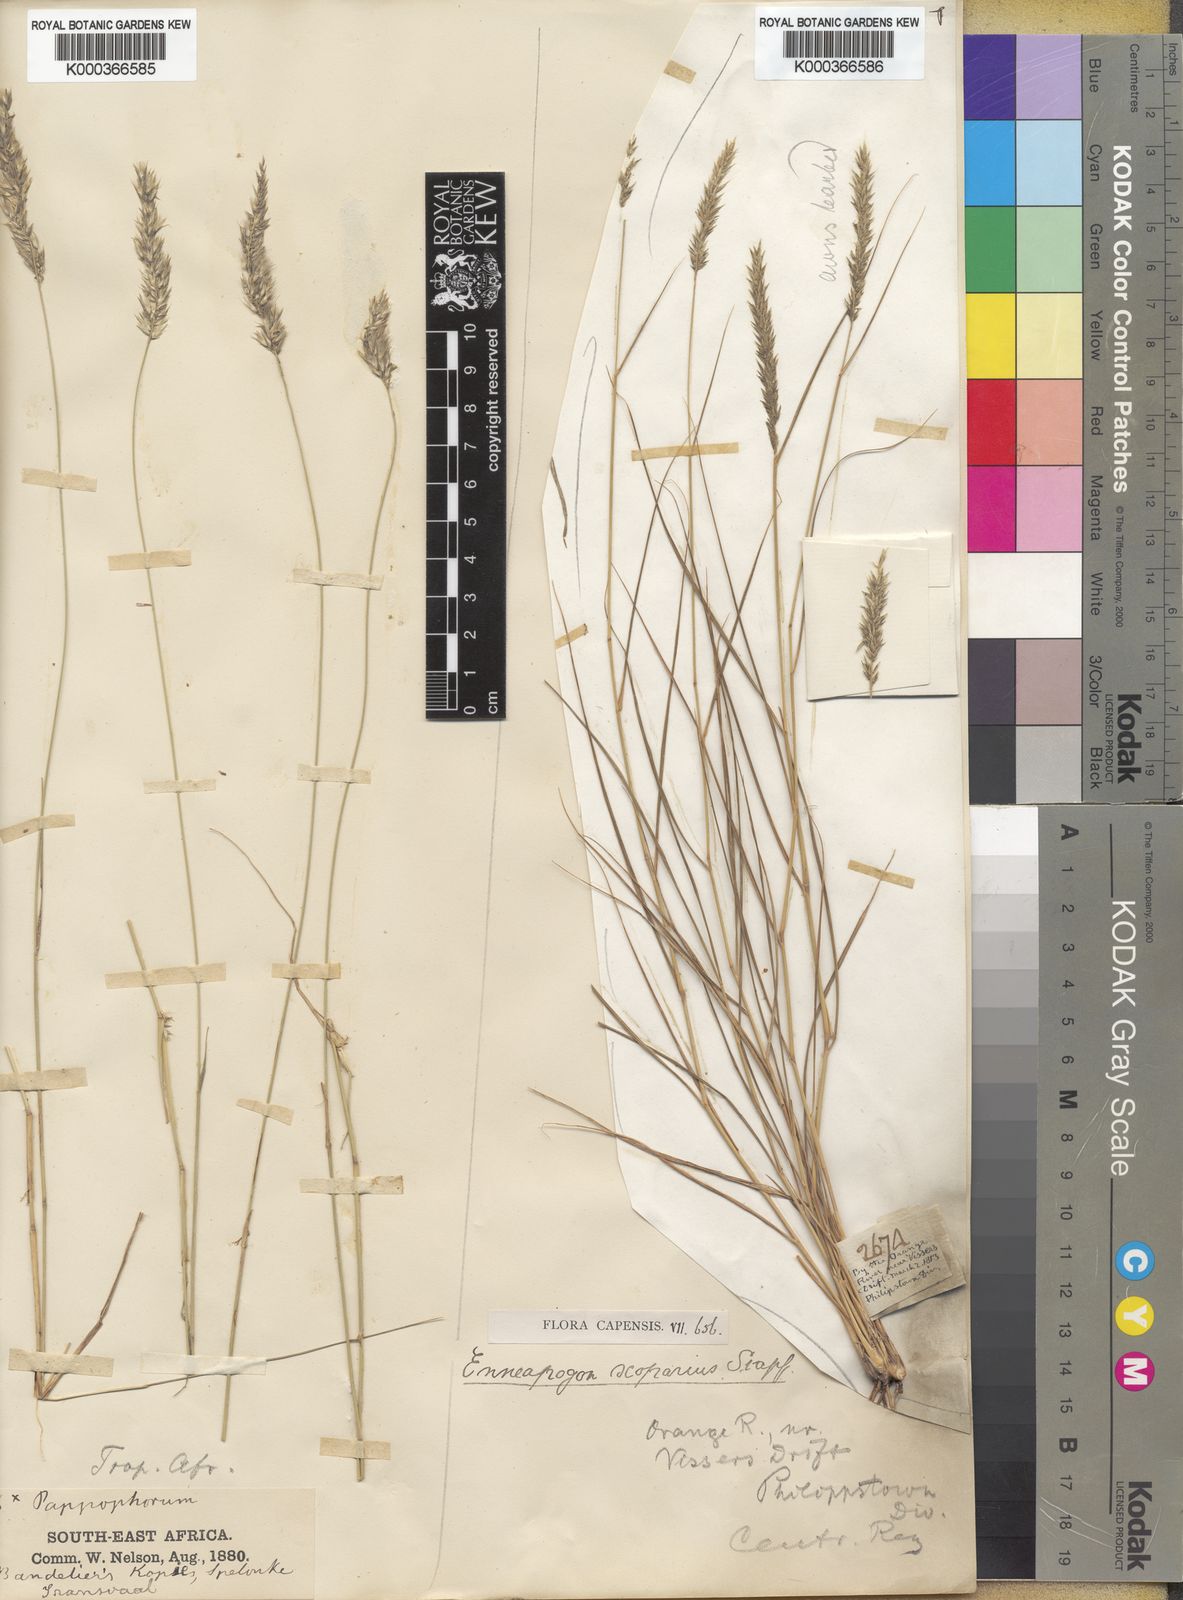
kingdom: Plantae
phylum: Tracheophyta
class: Liliopsida
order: Poales
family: Poaceae
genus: Enneapogon
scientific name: Enneapogon scoparius
